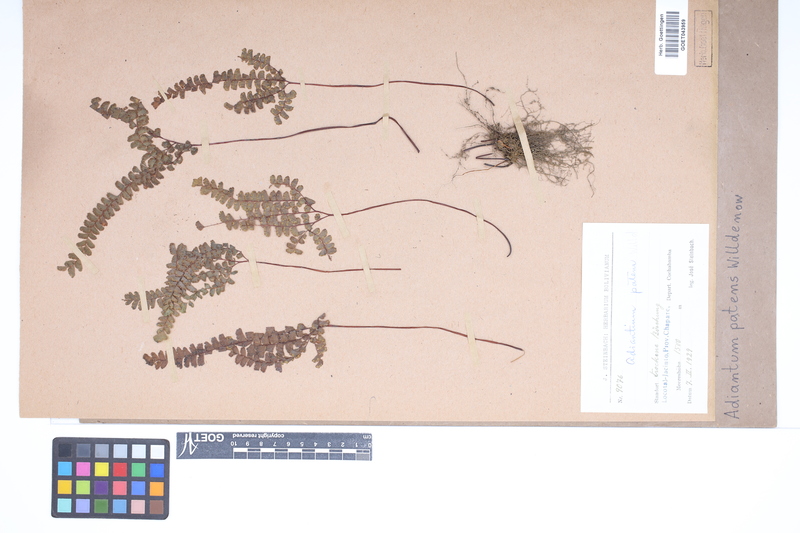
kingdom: Plantae
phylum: Tracheophyta
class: Polypodiopsida
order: Polypodiales
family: Pteridaceae
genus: Adiantum
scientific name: Adiantum patens
